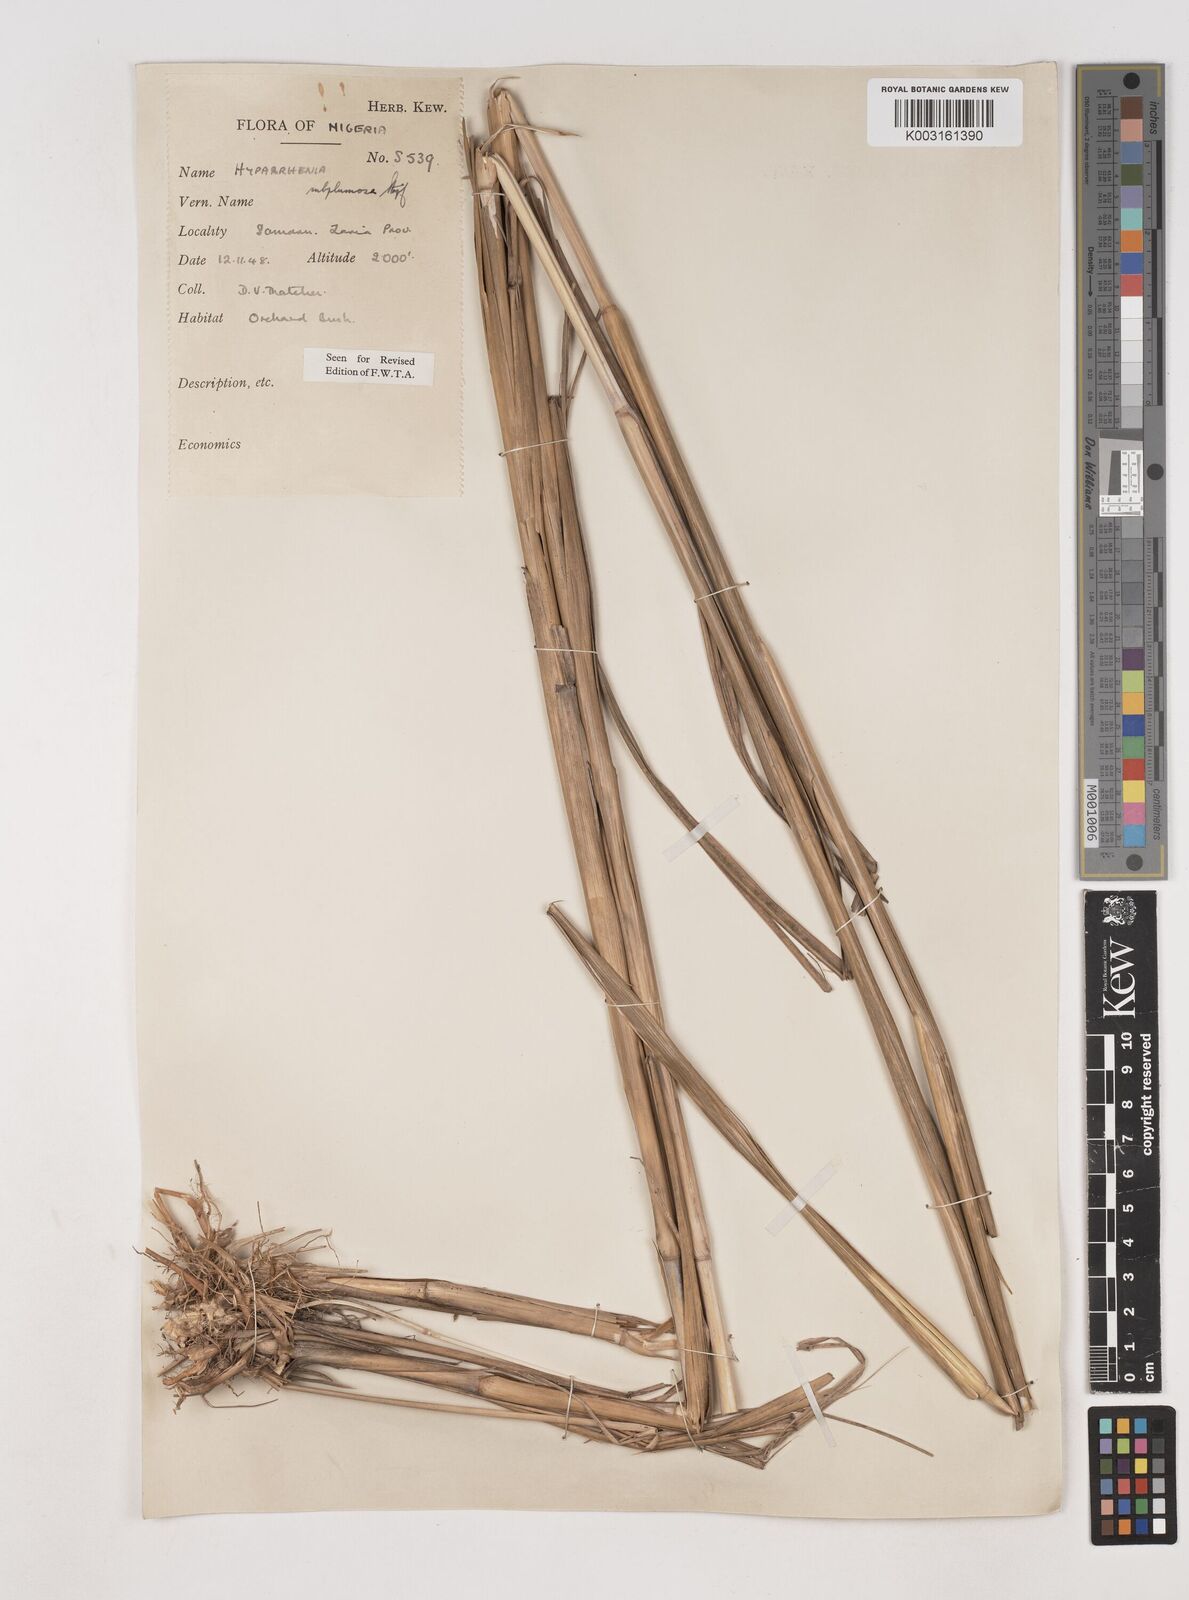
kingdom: Plantae
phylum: Tracheophyta
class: Liliopsida
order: Poales
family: Poaceae
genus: Hyparrhenia
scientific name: Hyparrhenia subplumosa
